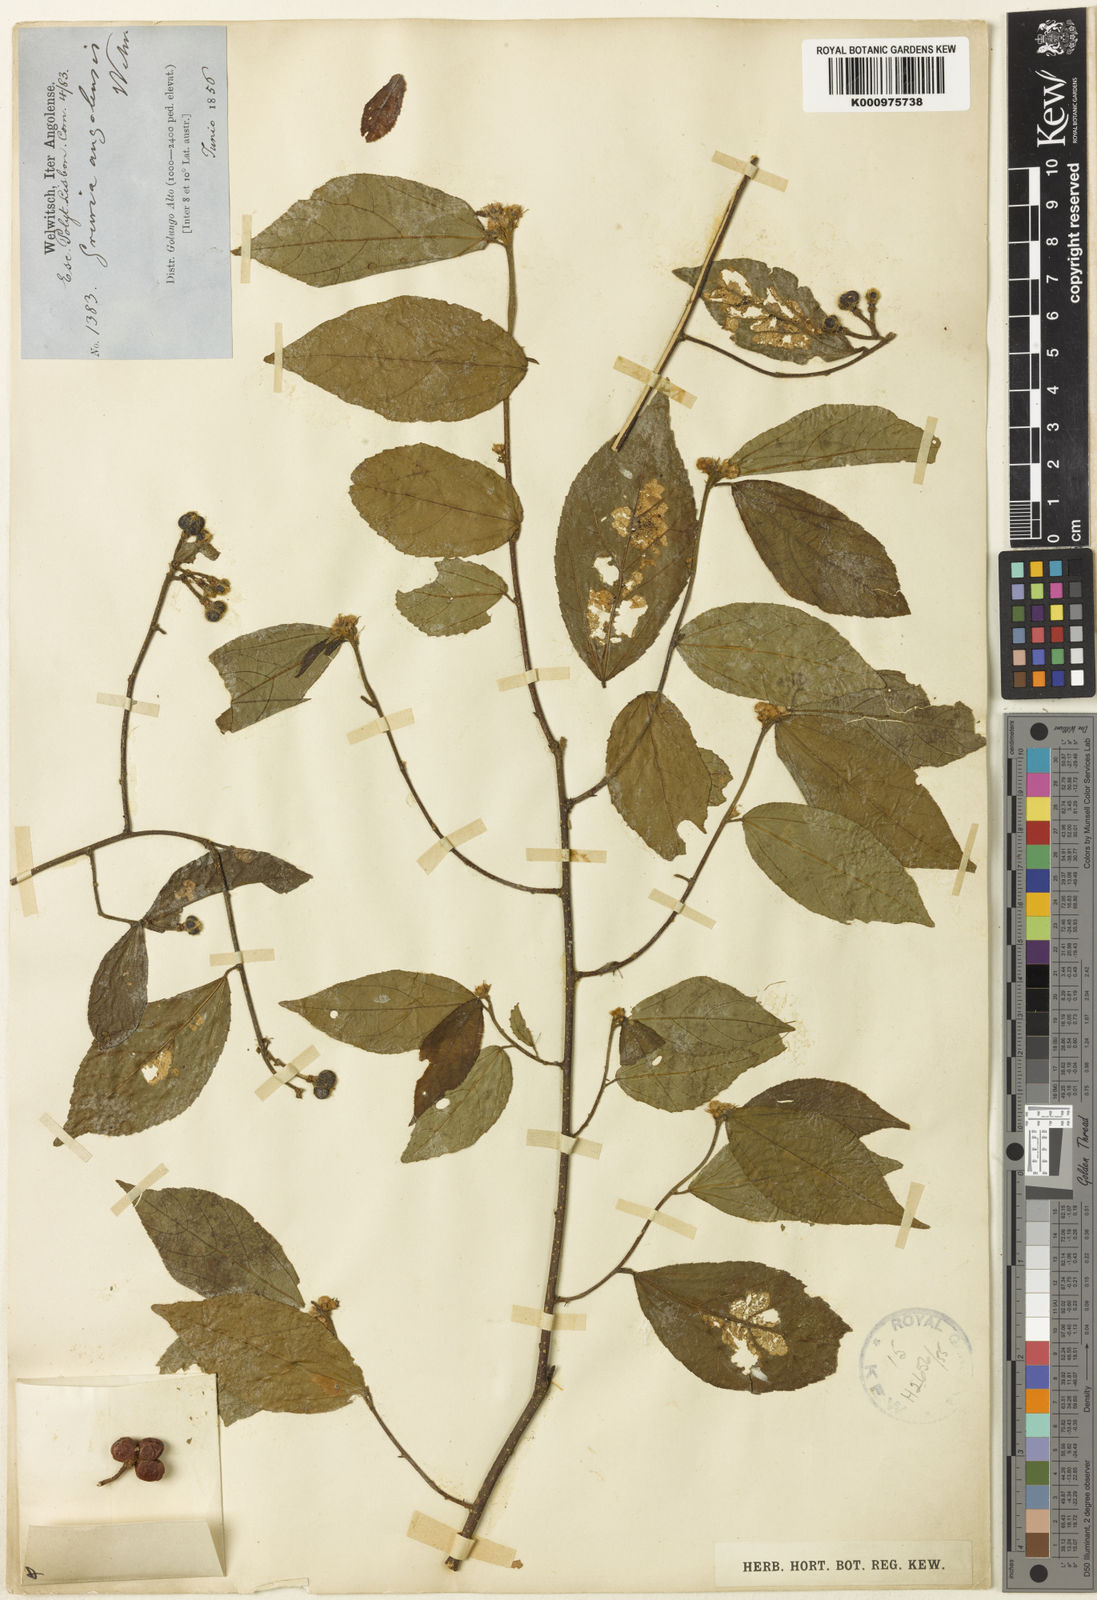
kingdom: Plantae
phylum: Tracheophyta
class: Magnoliopsida
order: Malvales
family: Malvaceae
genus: Grewia
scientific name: Grewia angolensis
